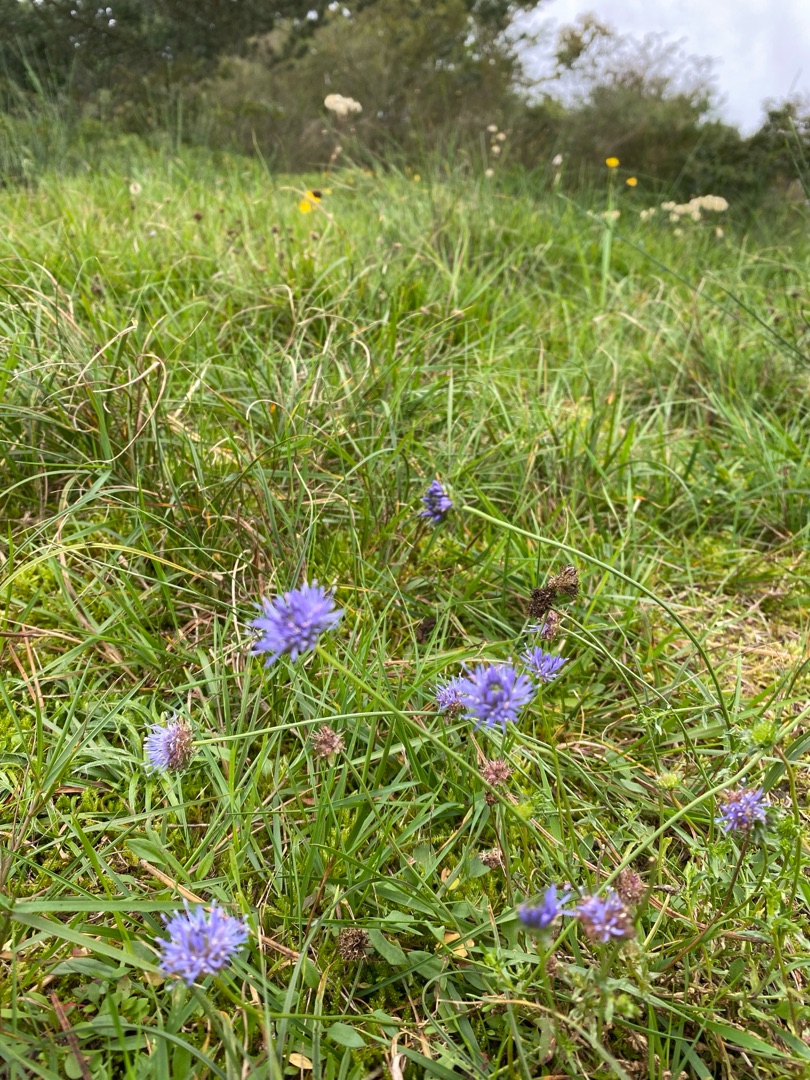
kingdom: Plantae
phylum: Tracheophyta
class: Magnoliopsida
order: Asterales
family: Campanulaceae
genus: Jasione
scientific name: Jasione montana
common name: Blåmunke
